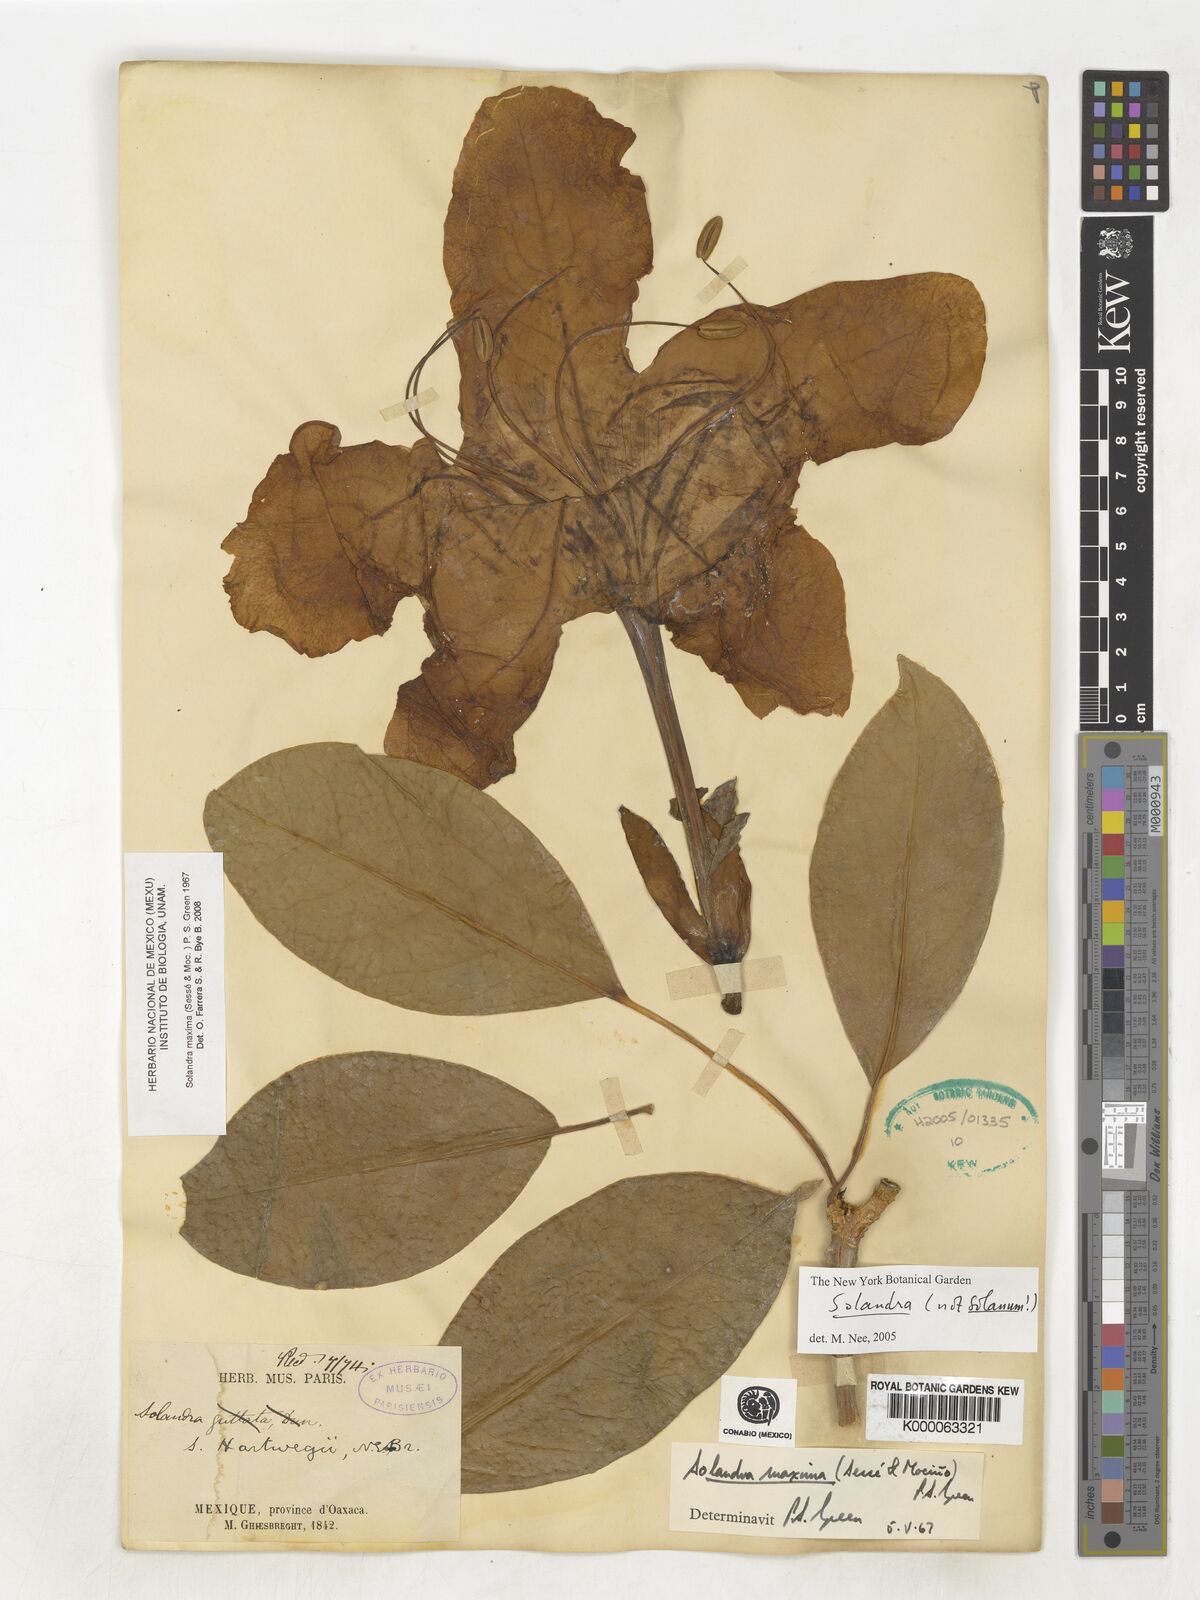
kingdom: Plantae
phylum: Tracheophyta
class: Magnoliopsida
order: Solanales
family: Solanaceae
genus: Solandra
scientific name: Solandra
